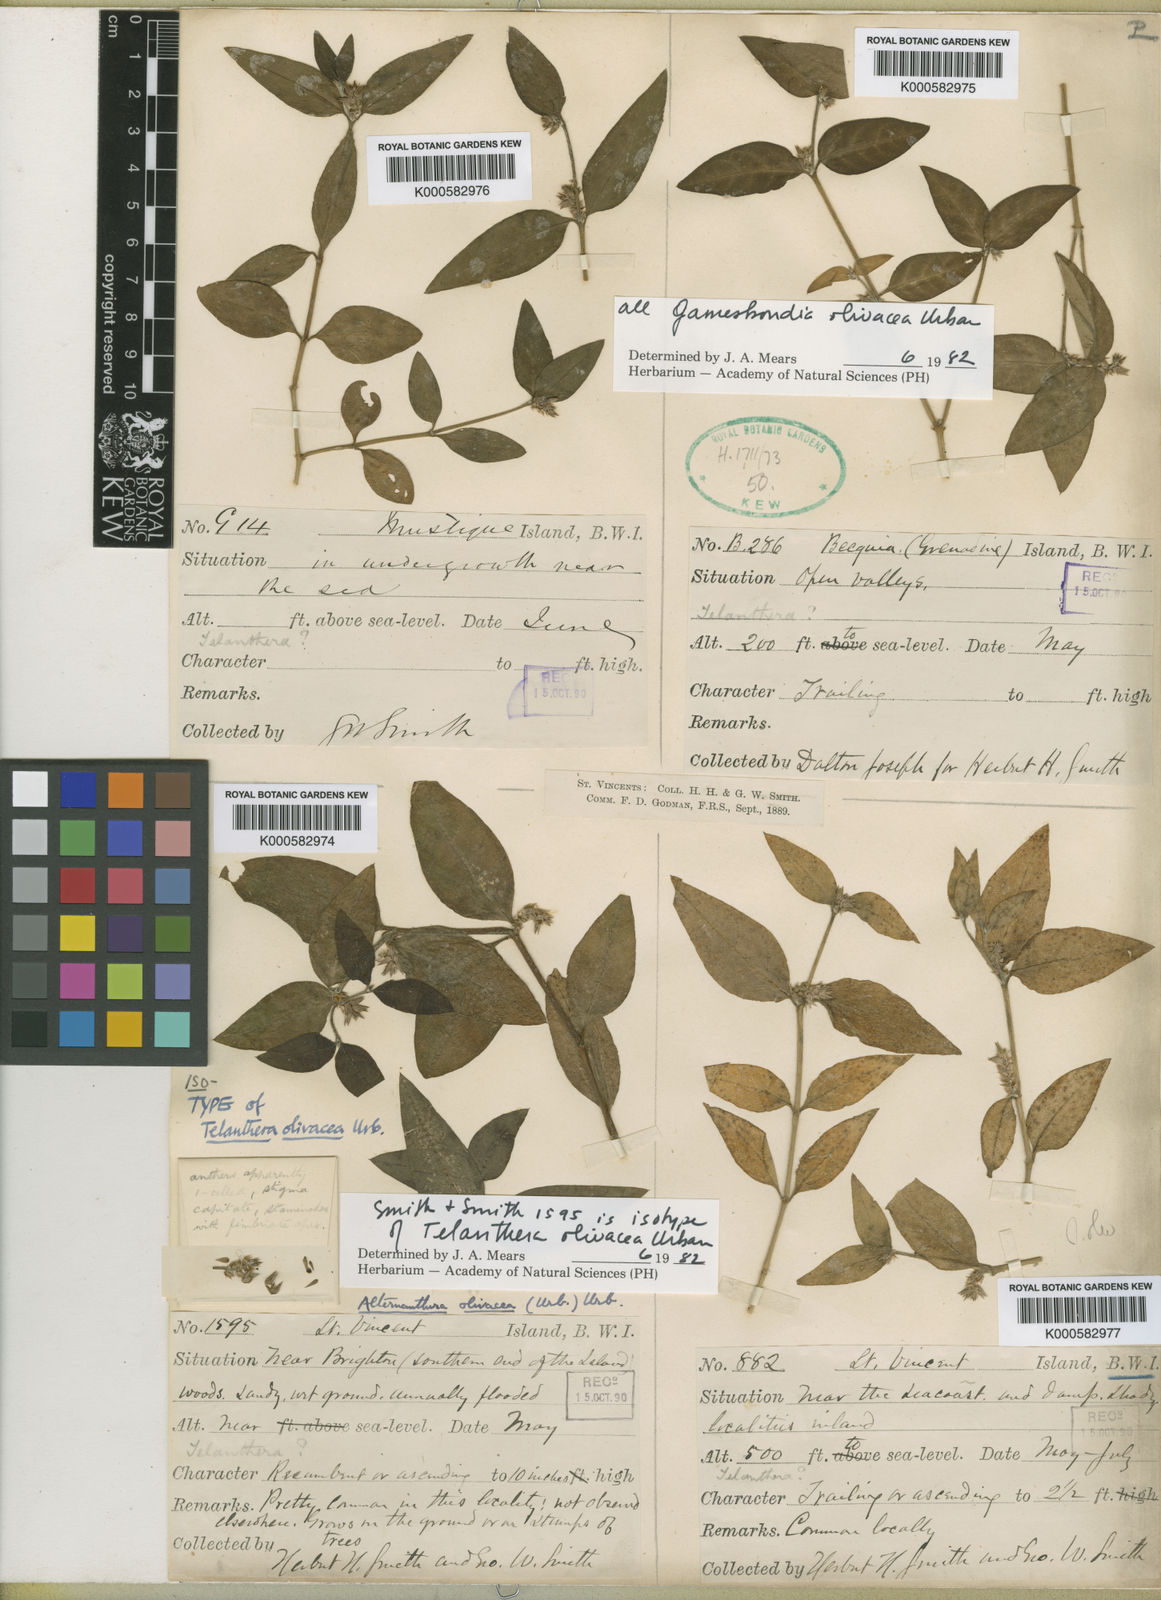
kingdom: Plantae
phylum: Tracheophyta
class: Magnoliopsida
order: Caryophyllales
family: Amaranthaceae
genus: Alternanthera
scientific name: Alternanthera olivacea
